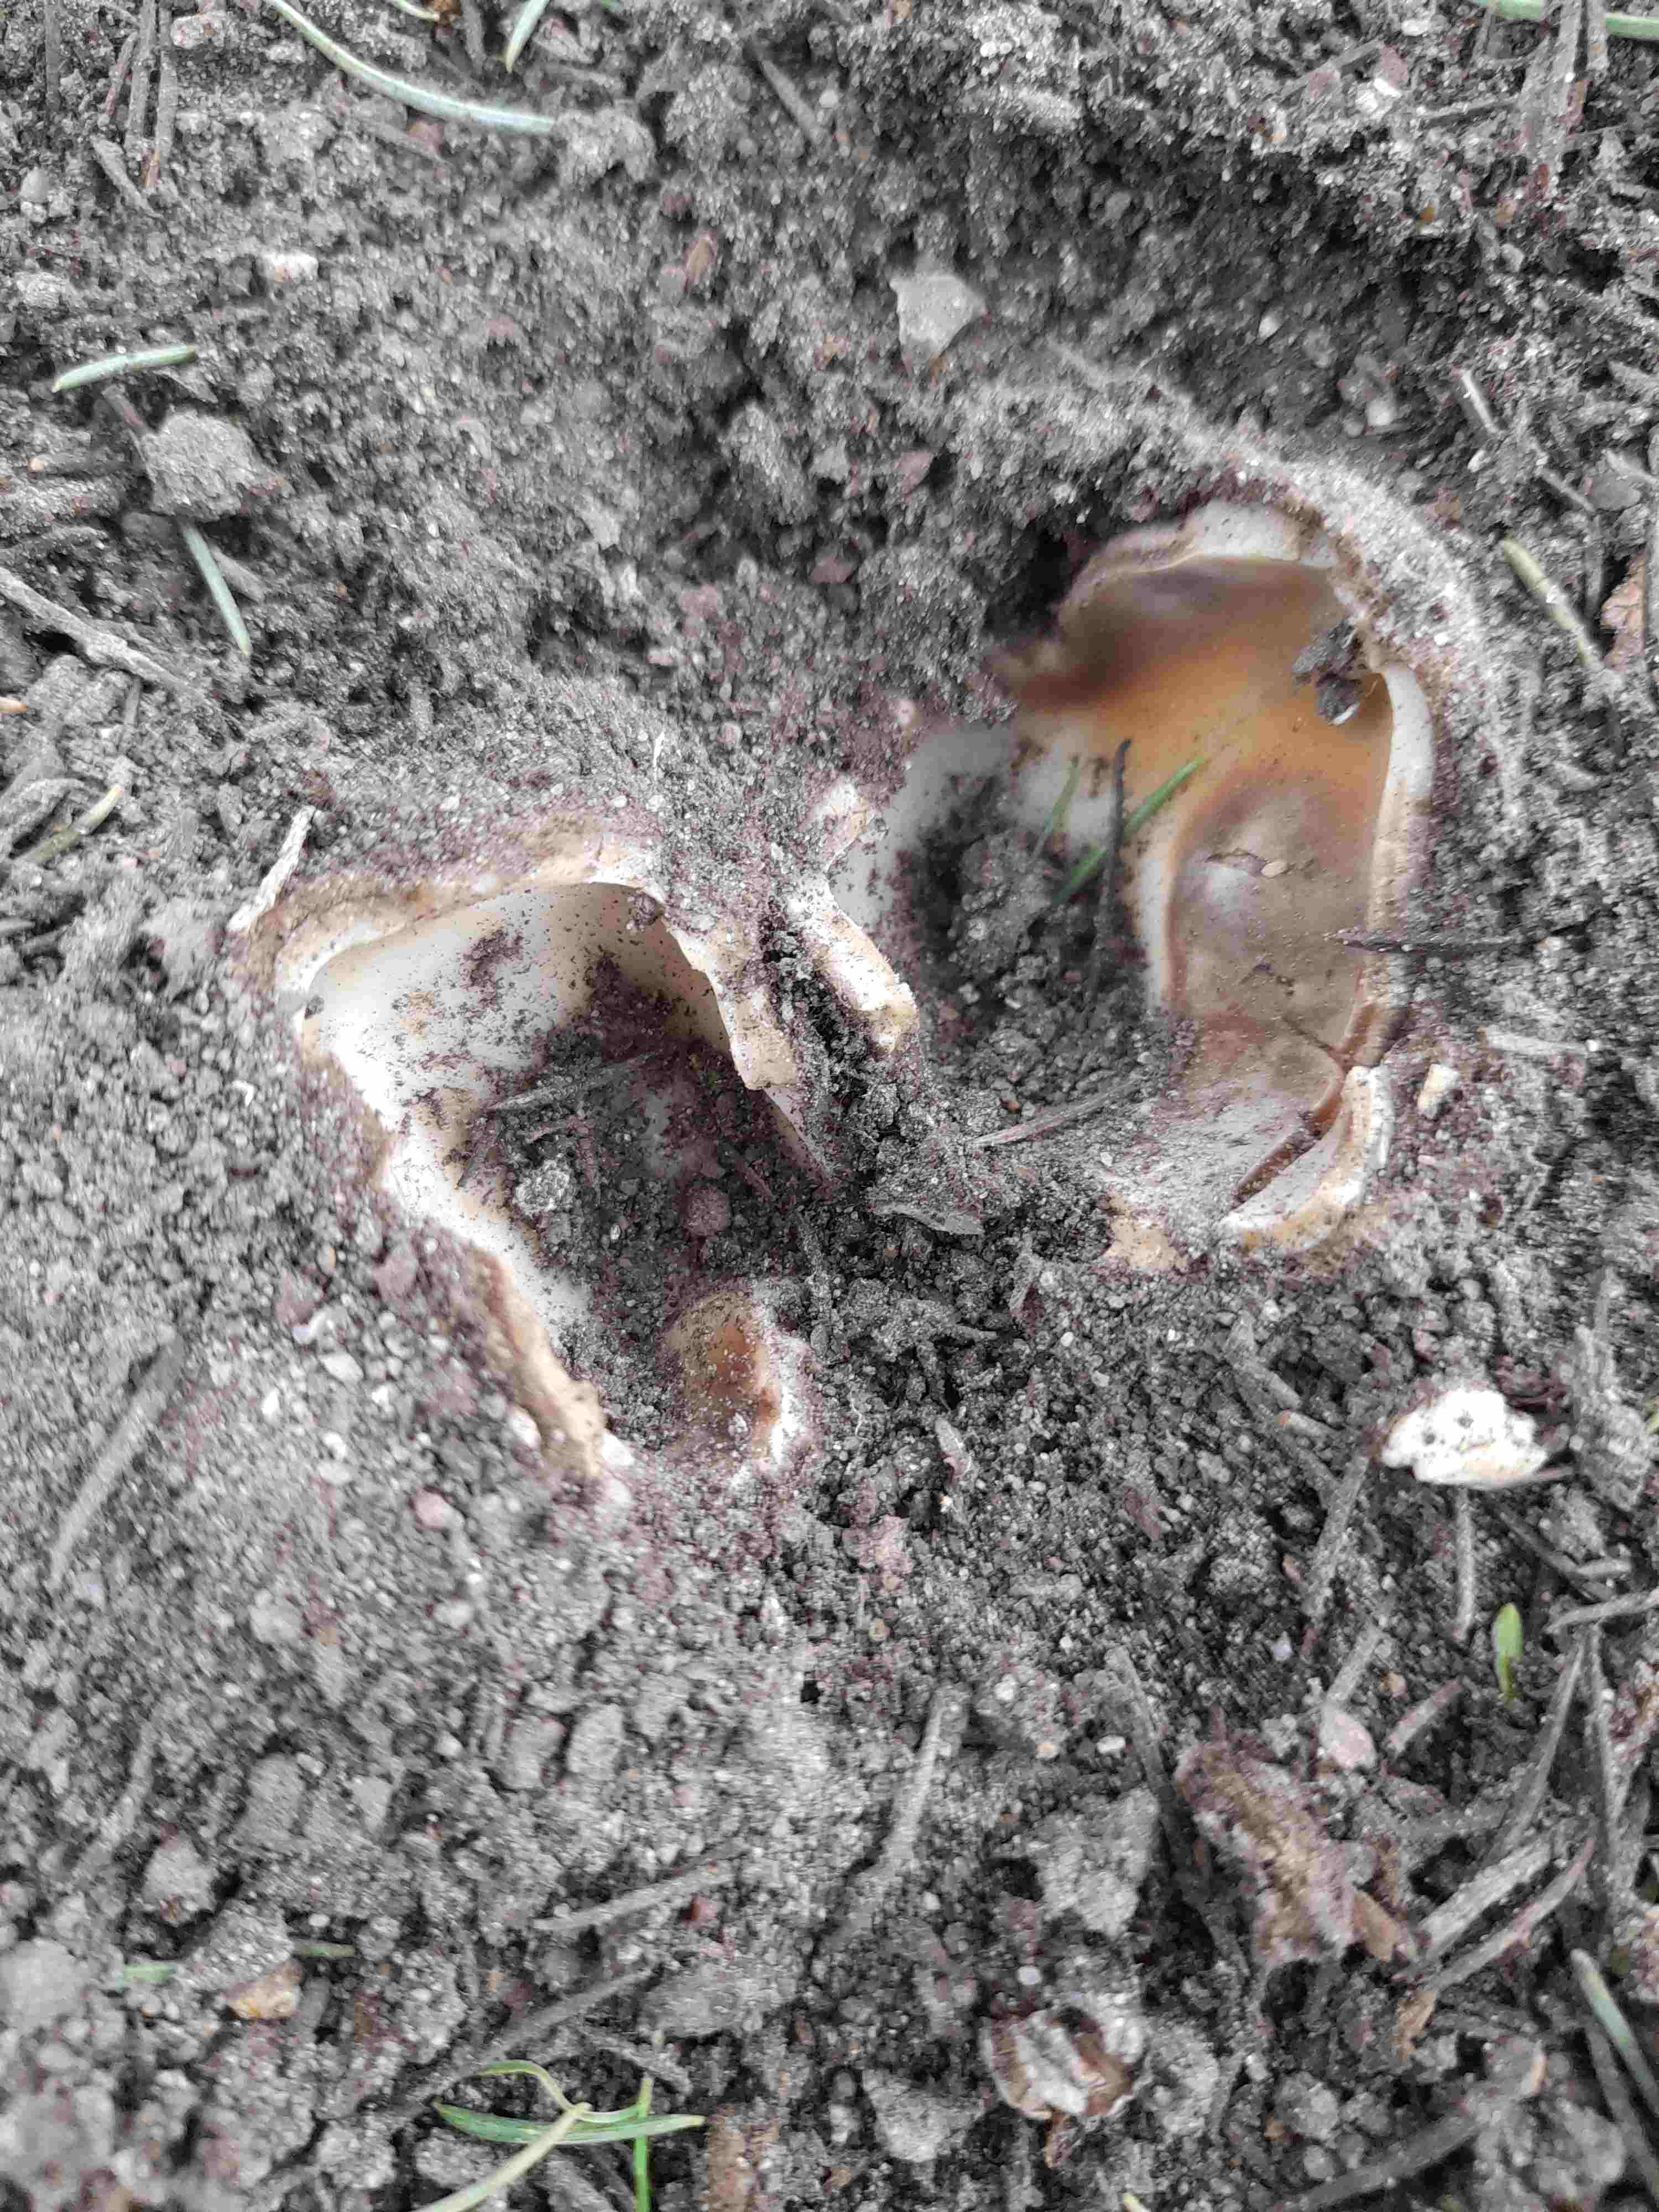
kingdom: Fungi
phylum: Ascomycota
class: Pezizomycetes
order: Pezizales
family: Pyronemataceae
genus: Geopora
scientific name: Geopora sumneriana
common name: vår-jordbæger
